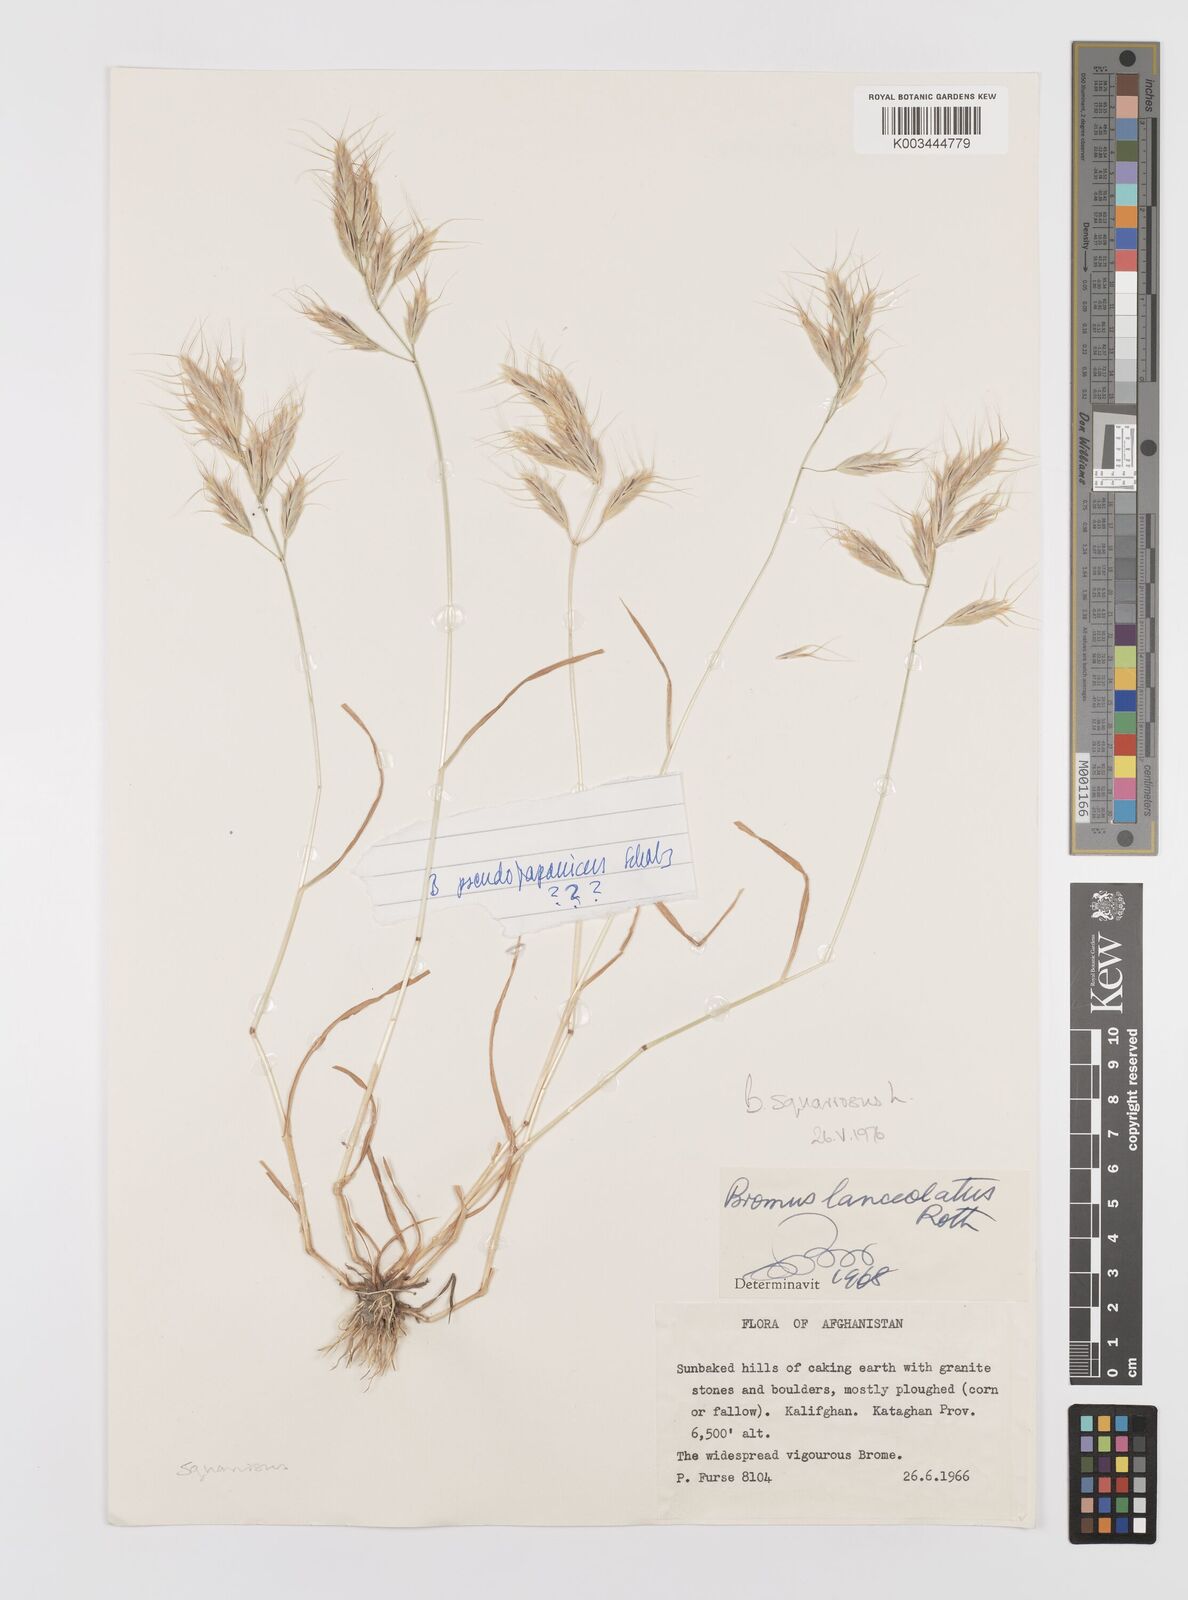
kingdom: Plantae
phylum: Tracheophyta
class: Liliopsida
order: Poales
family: Poaceae
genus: Bromus
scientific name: Bromus squarrosus
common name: Corn brome
